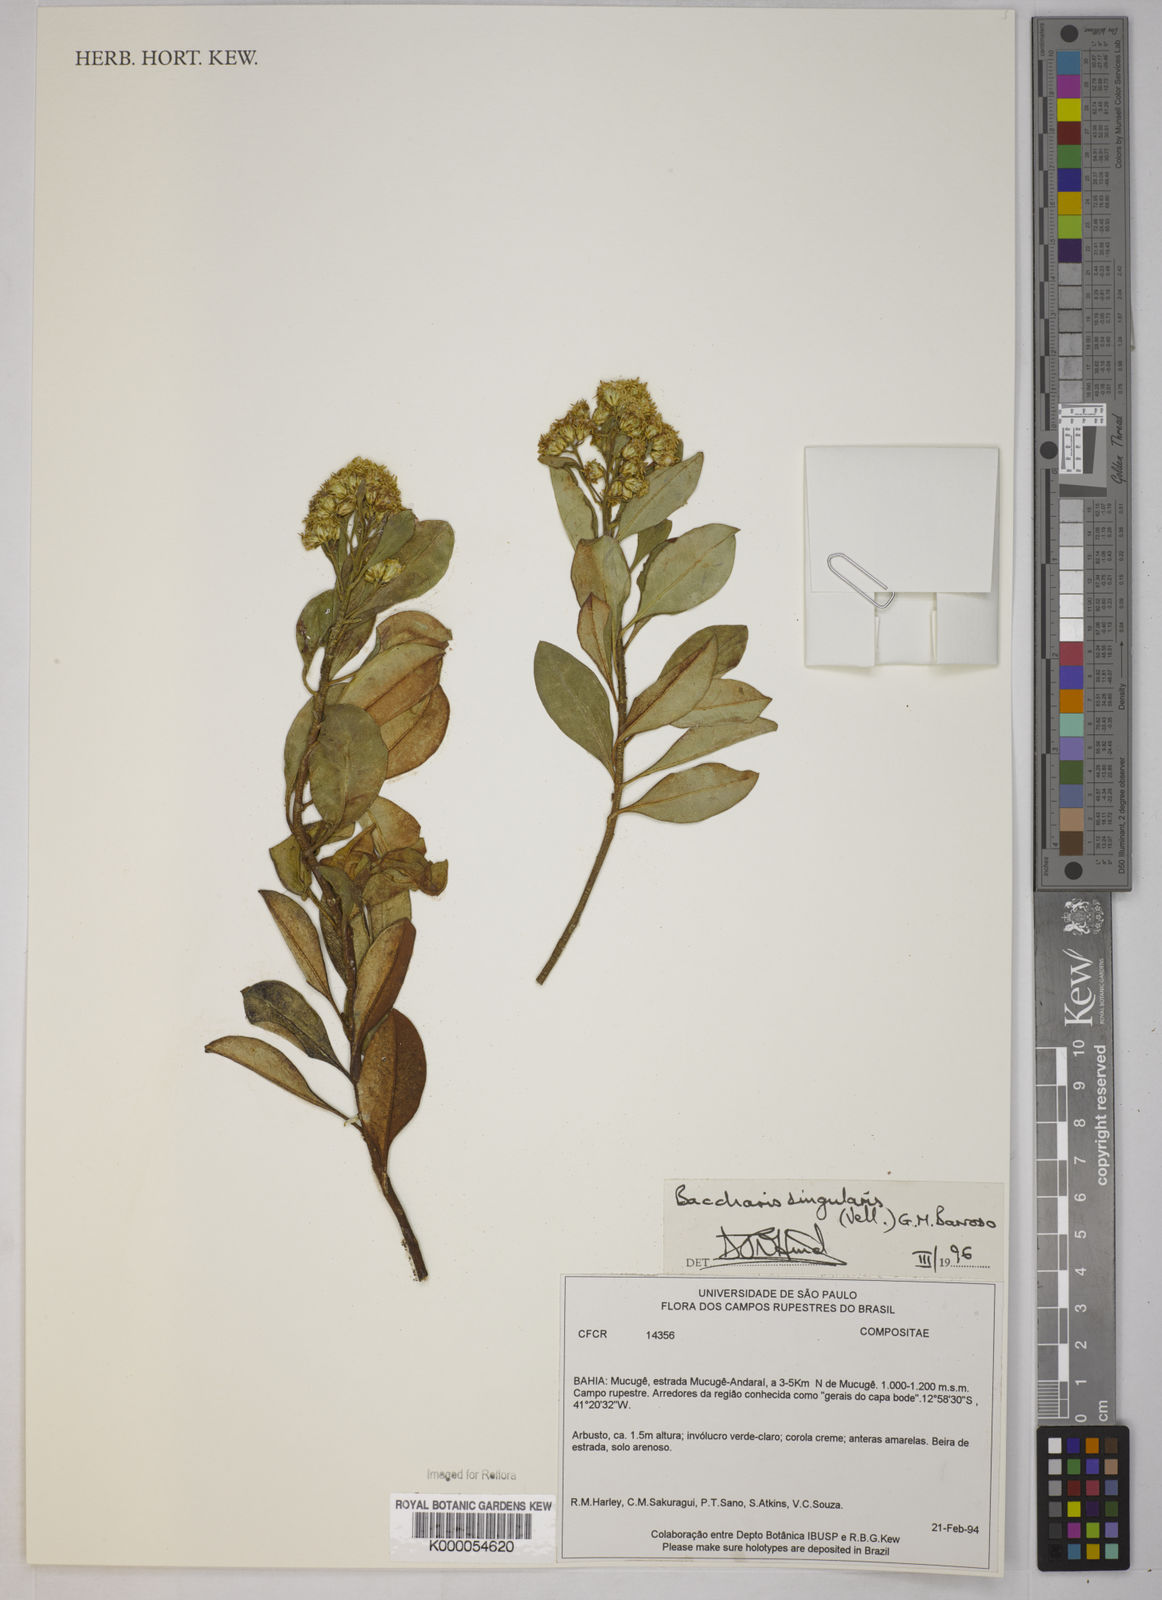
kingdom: Plantae
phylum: Tracheophyta
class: Magnoliopsida
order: Asterales
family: Asteraceae
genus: Baccharis
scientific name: Baccharis singularis
